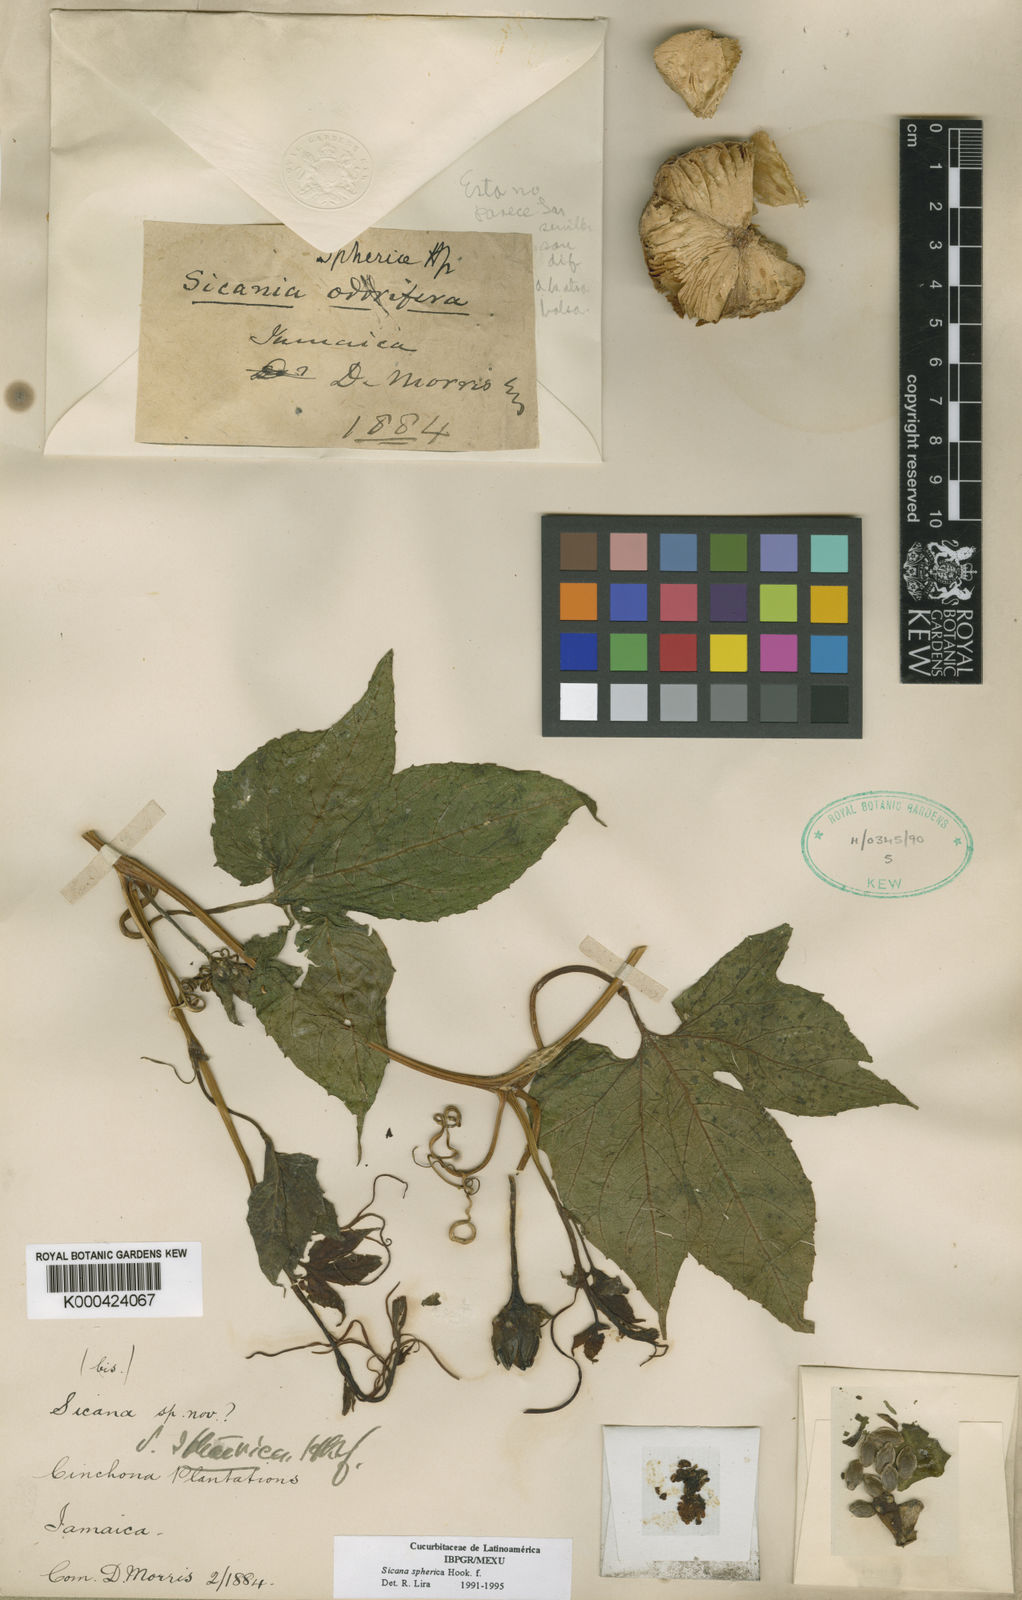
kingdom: Plantae
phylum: Tracheophyta
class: Magnoliopsida
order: Cucurbitales
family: Cucurbitaceae
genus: Sicana
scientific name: Sicana sphaerica
